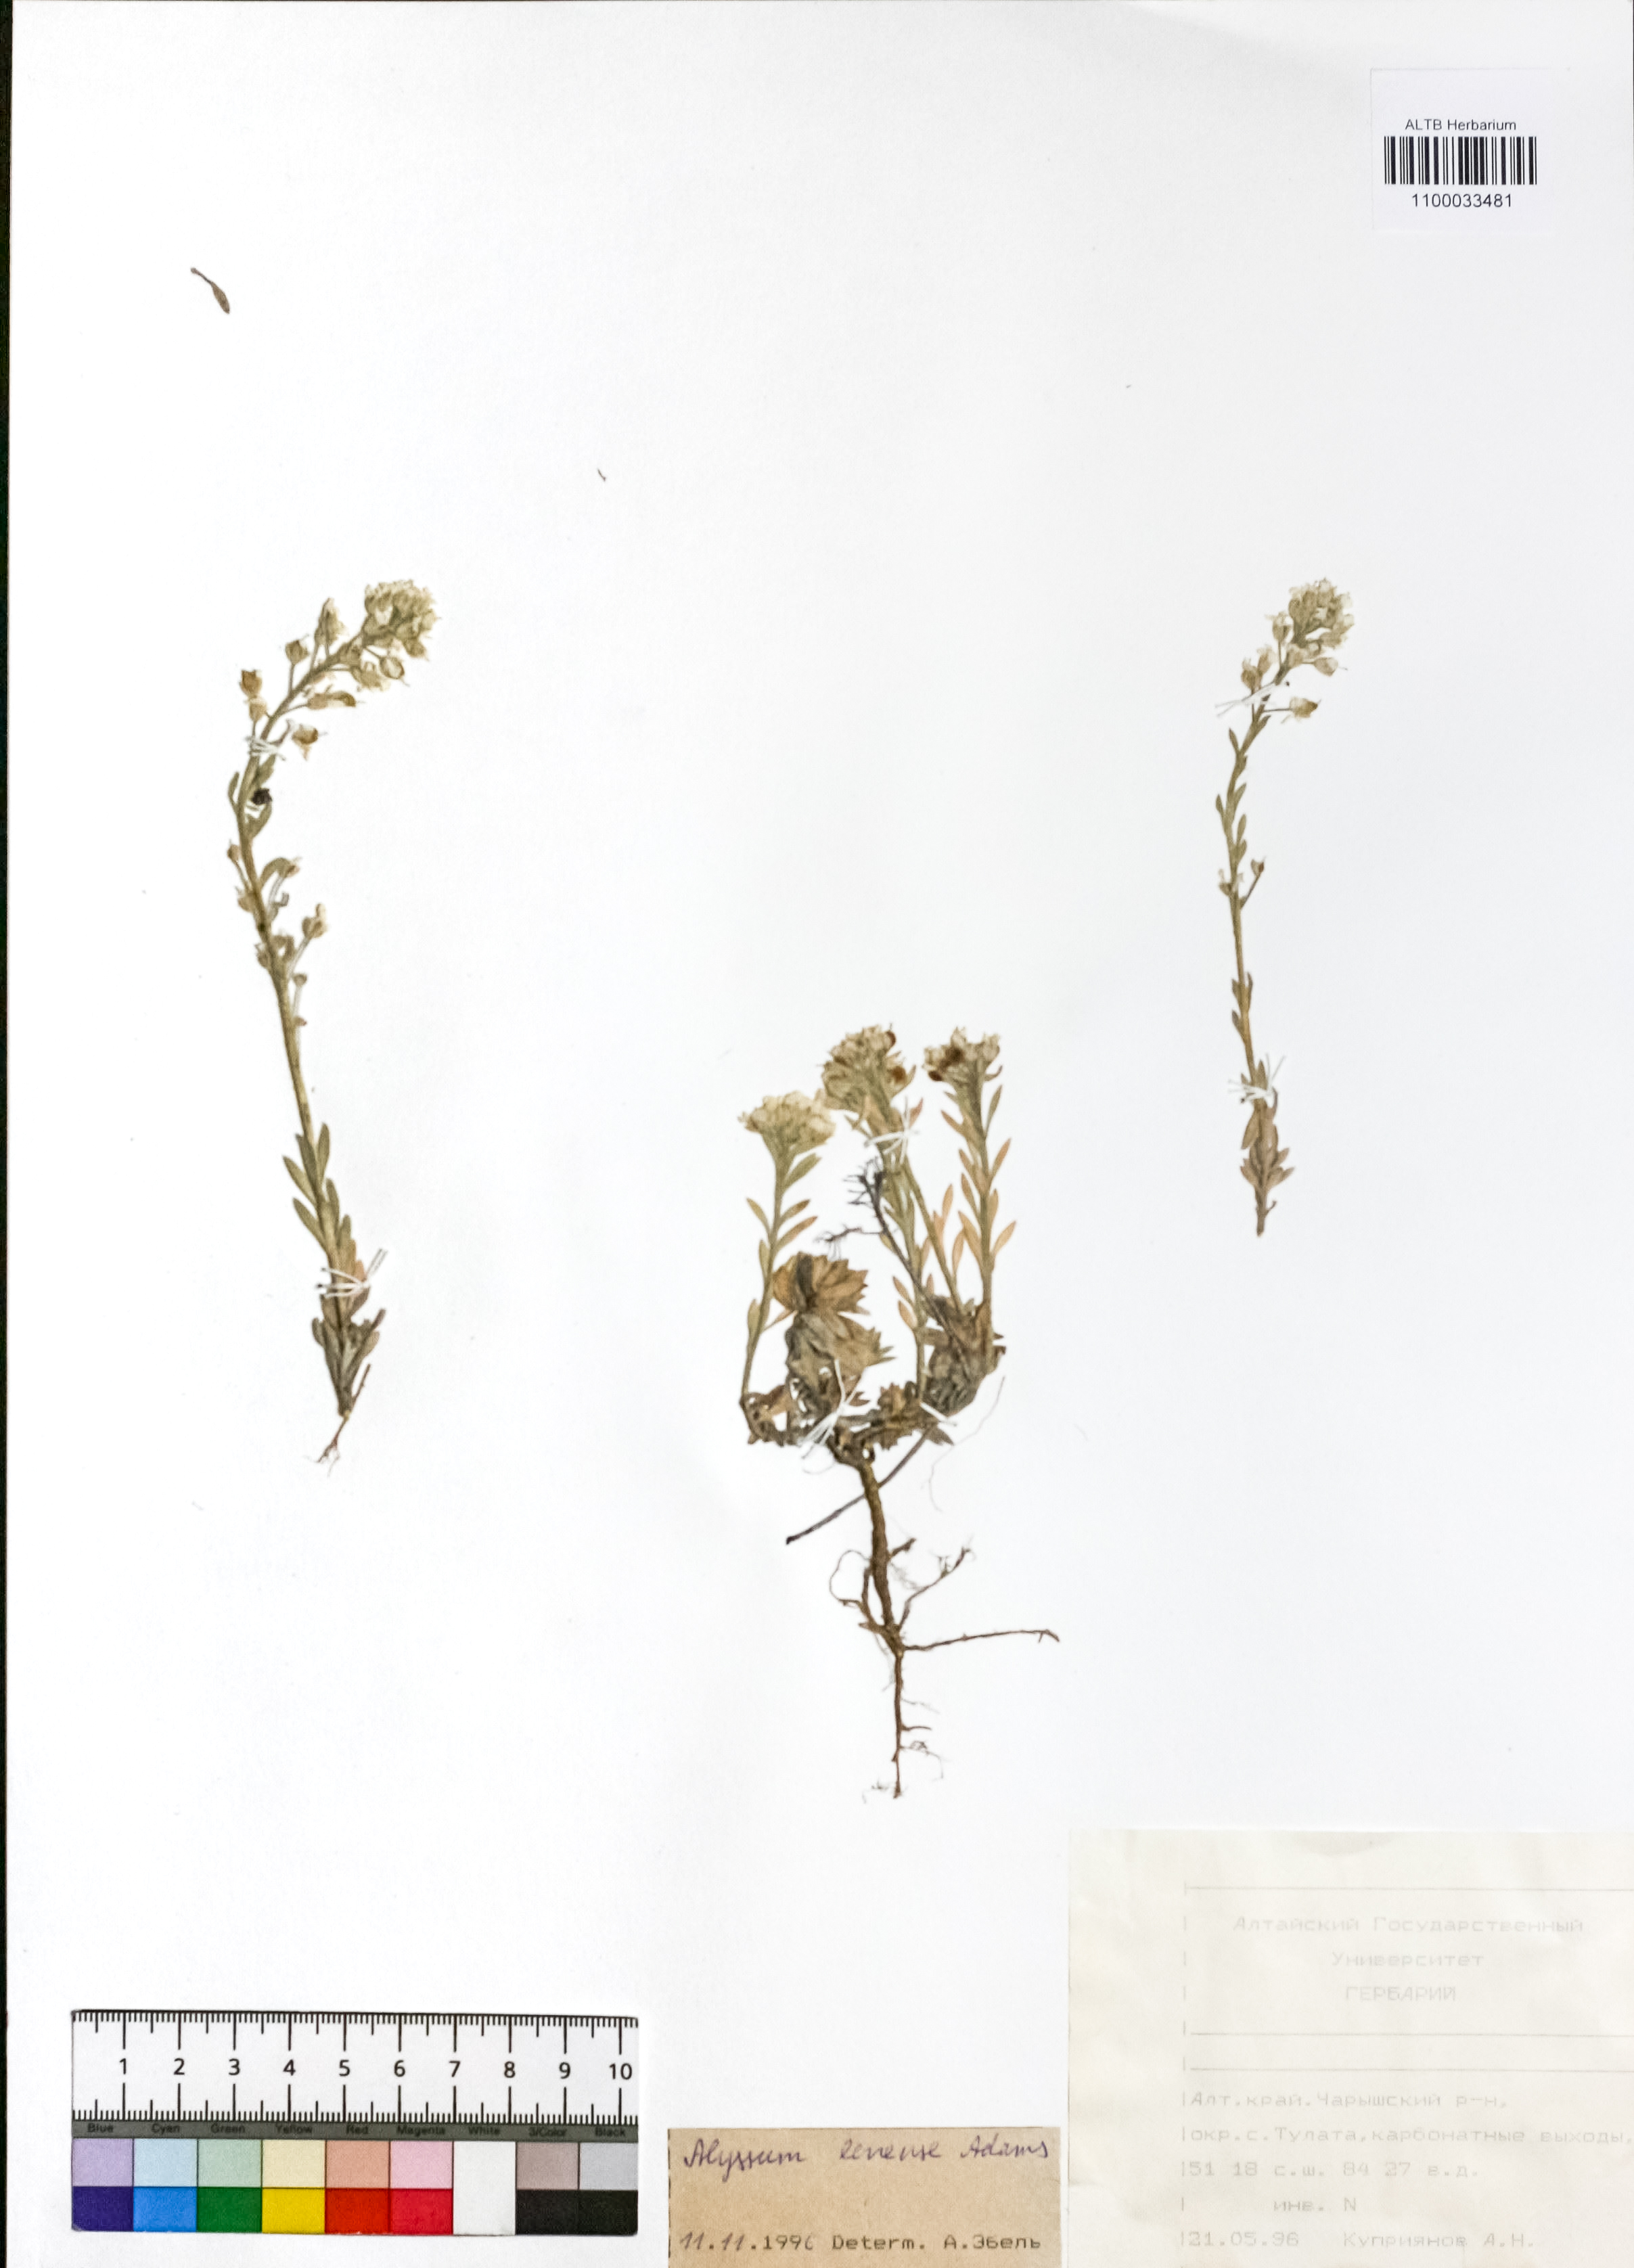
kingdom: Plantae
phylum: Tracheophyta
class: Magnoliopsida
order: Brassicales
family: Brassicaceae
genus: Alyssum
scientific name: Alyssum lenense
